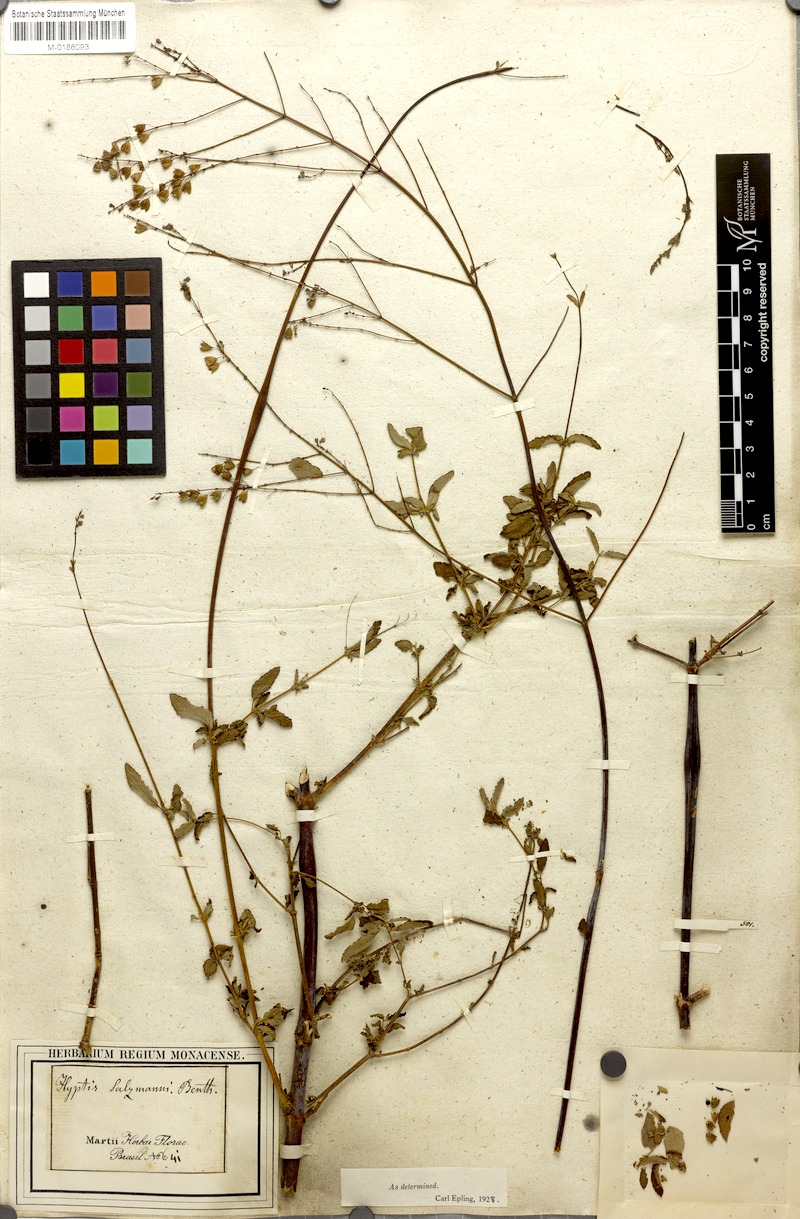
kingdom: Plantae
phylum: Tracheophyta
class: Magnoliopsida
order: Lamiales
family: Lamiaceae
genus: Hypenia
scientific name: Hypenia salzmannii
